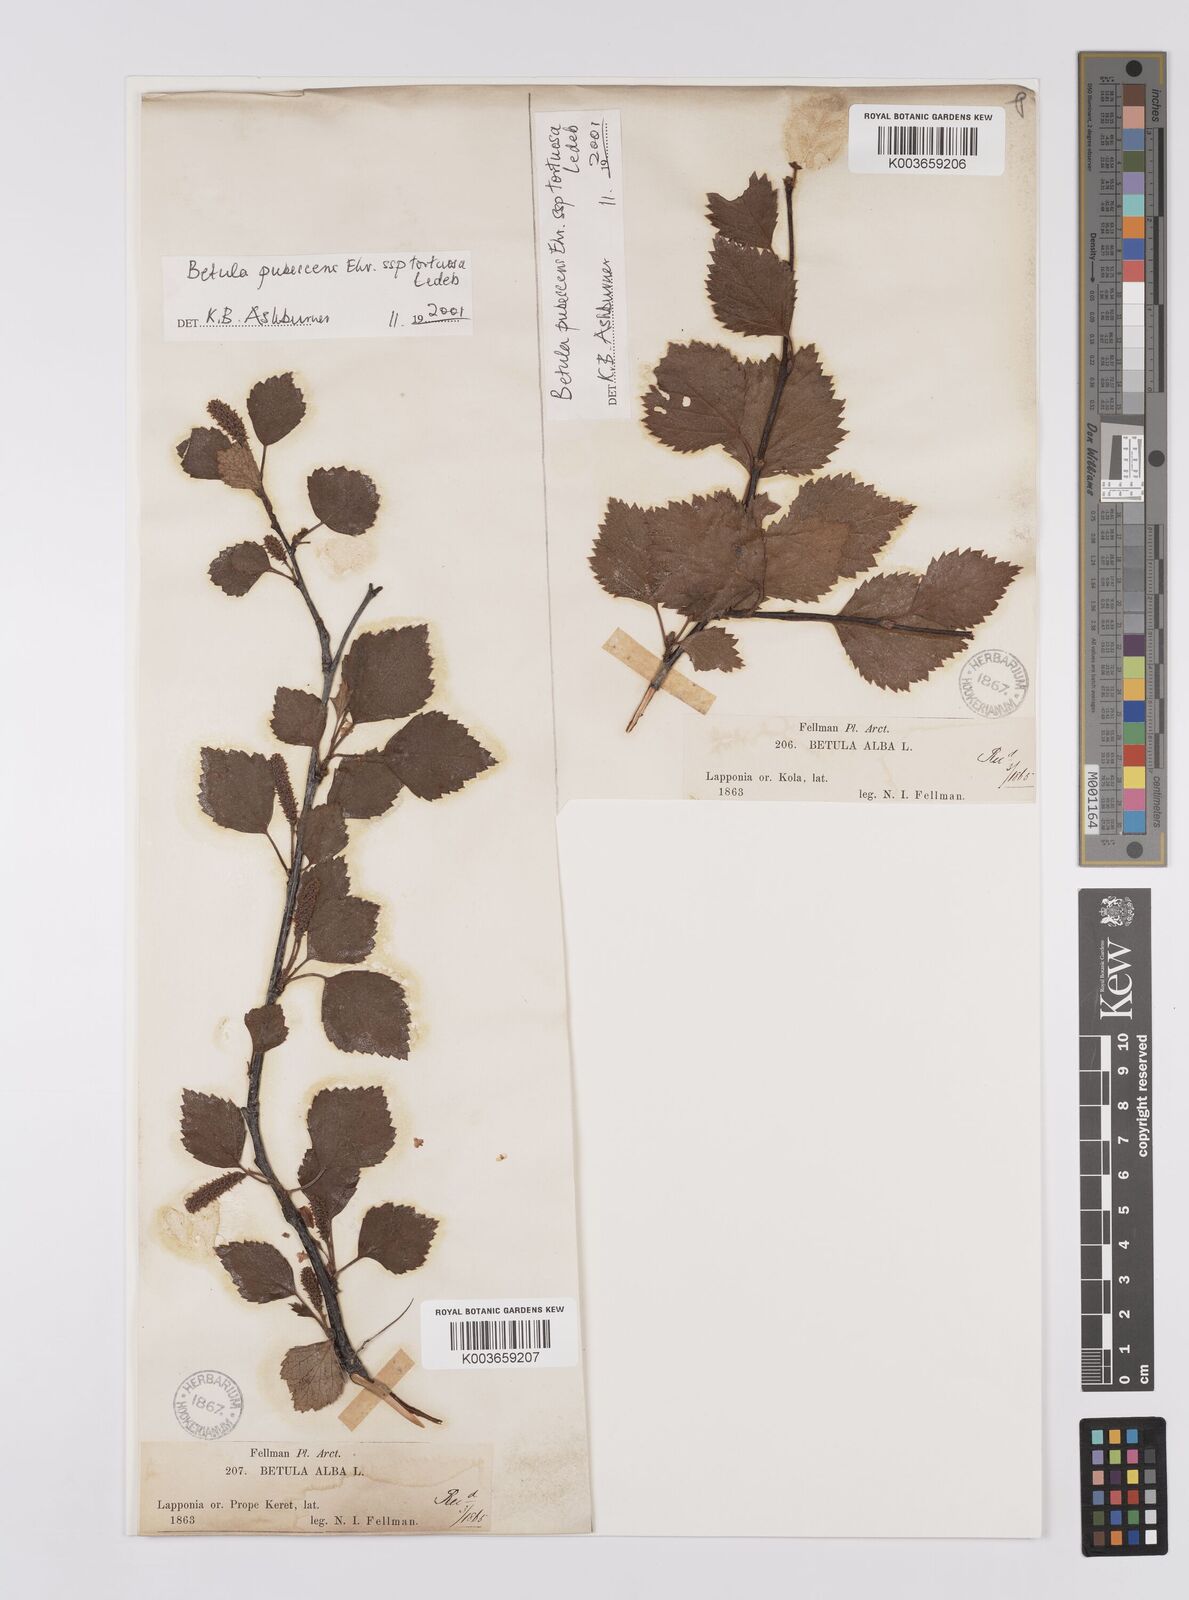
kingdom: Plantae
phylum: Tracheophyta
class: Magnoliopsida
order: Fagales
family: Betulaceae
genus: Betula
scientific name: Betula pubescens
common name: Downy birch
